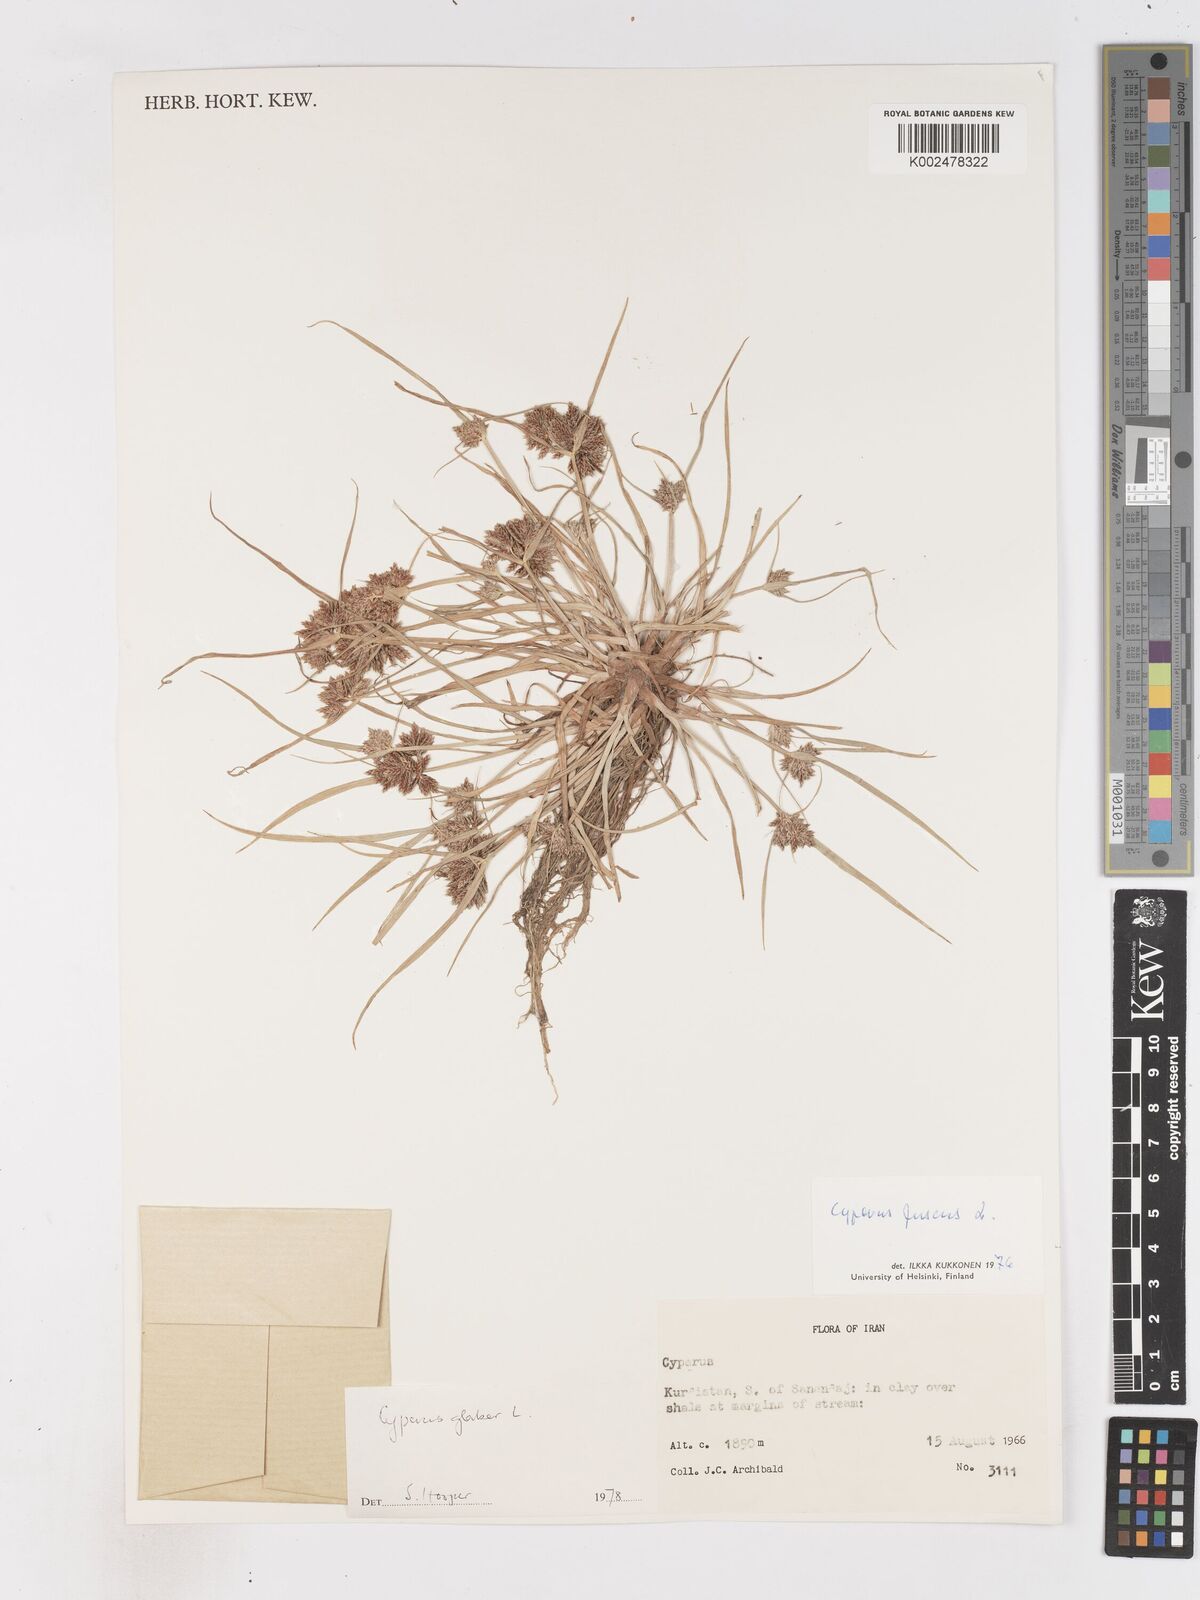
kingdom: Plantae
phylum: Tracheophyta
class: Liliopsida
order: Poales
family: Cyperaceae
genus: Cyperus
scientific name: Cyperus glaber
